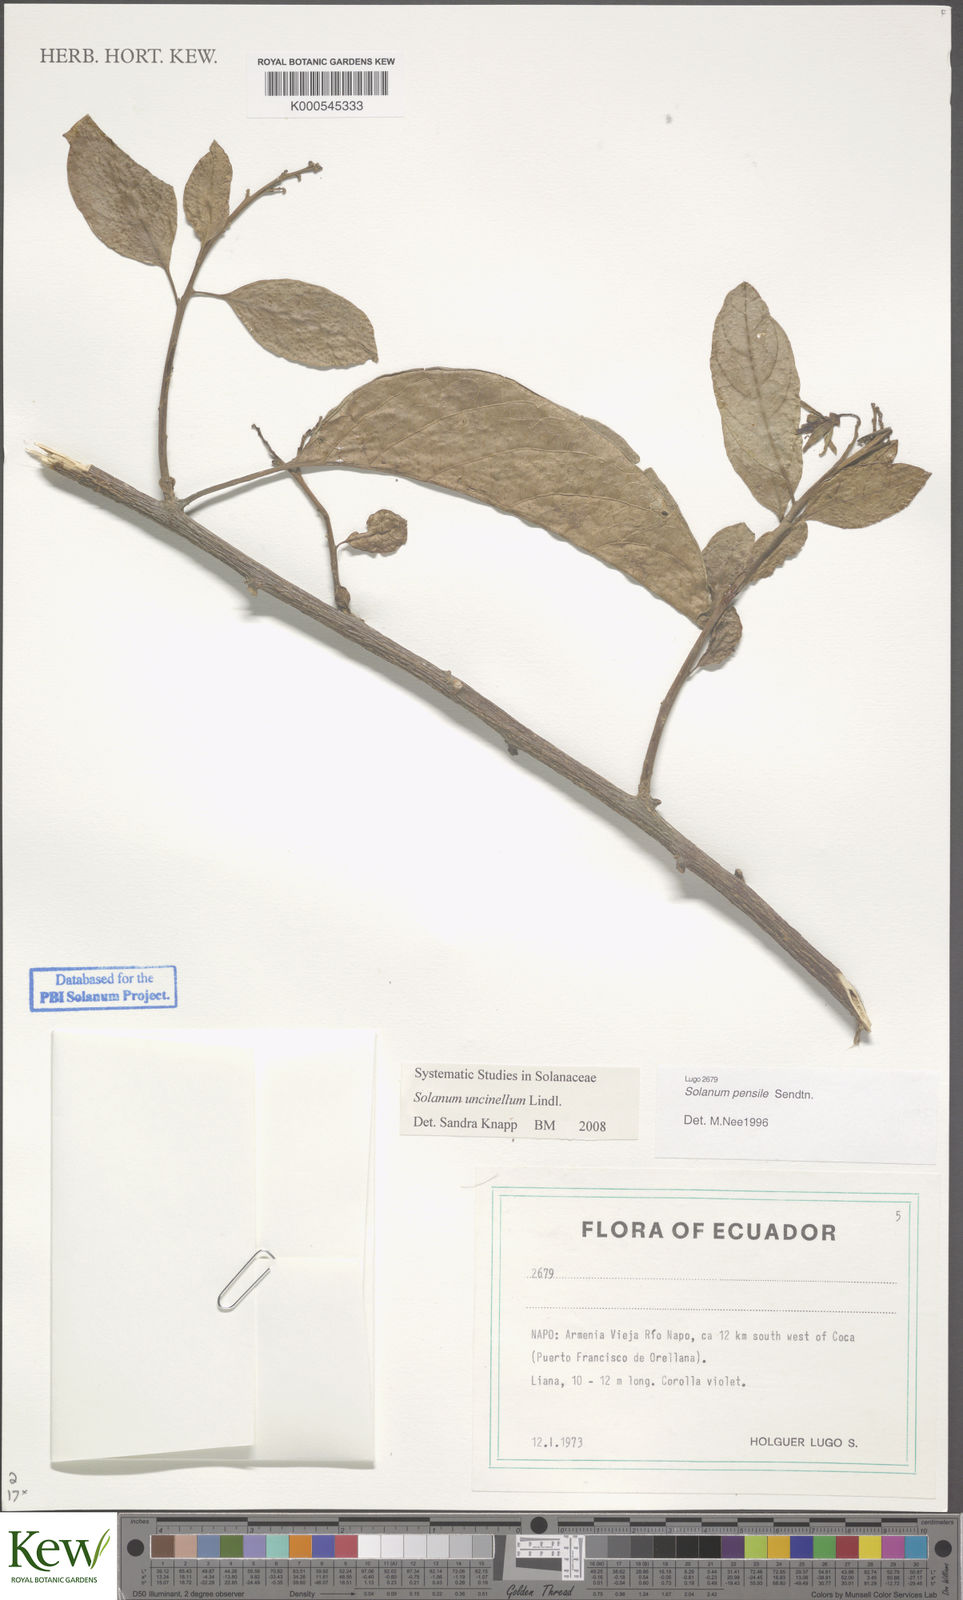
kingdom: Plantae
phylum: Tracheophyta
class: Magnoliopsida
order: Solanales
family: Solanaceae
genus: Solanum
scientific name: Solanum uncinellum
